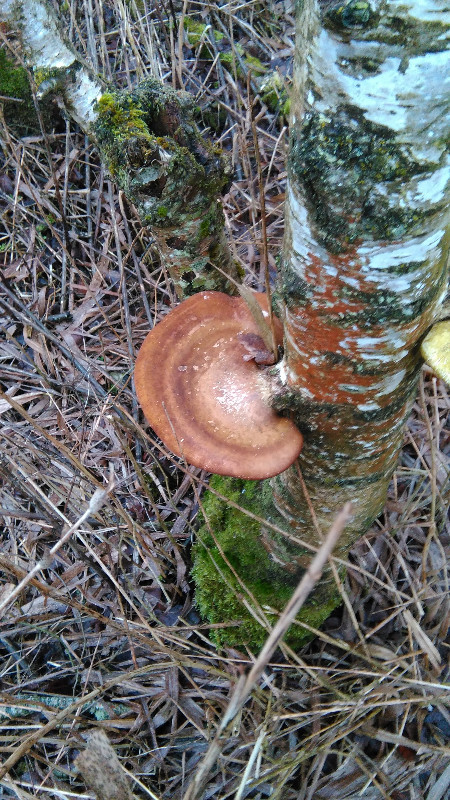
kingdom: Fungi
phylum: Basidiomycota
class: Agaricomycetes
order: Polyporales
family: Fomitopsidaceae
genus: Fomitopsis
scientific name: Fomitopsis betulina
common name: birkeporesvamp
